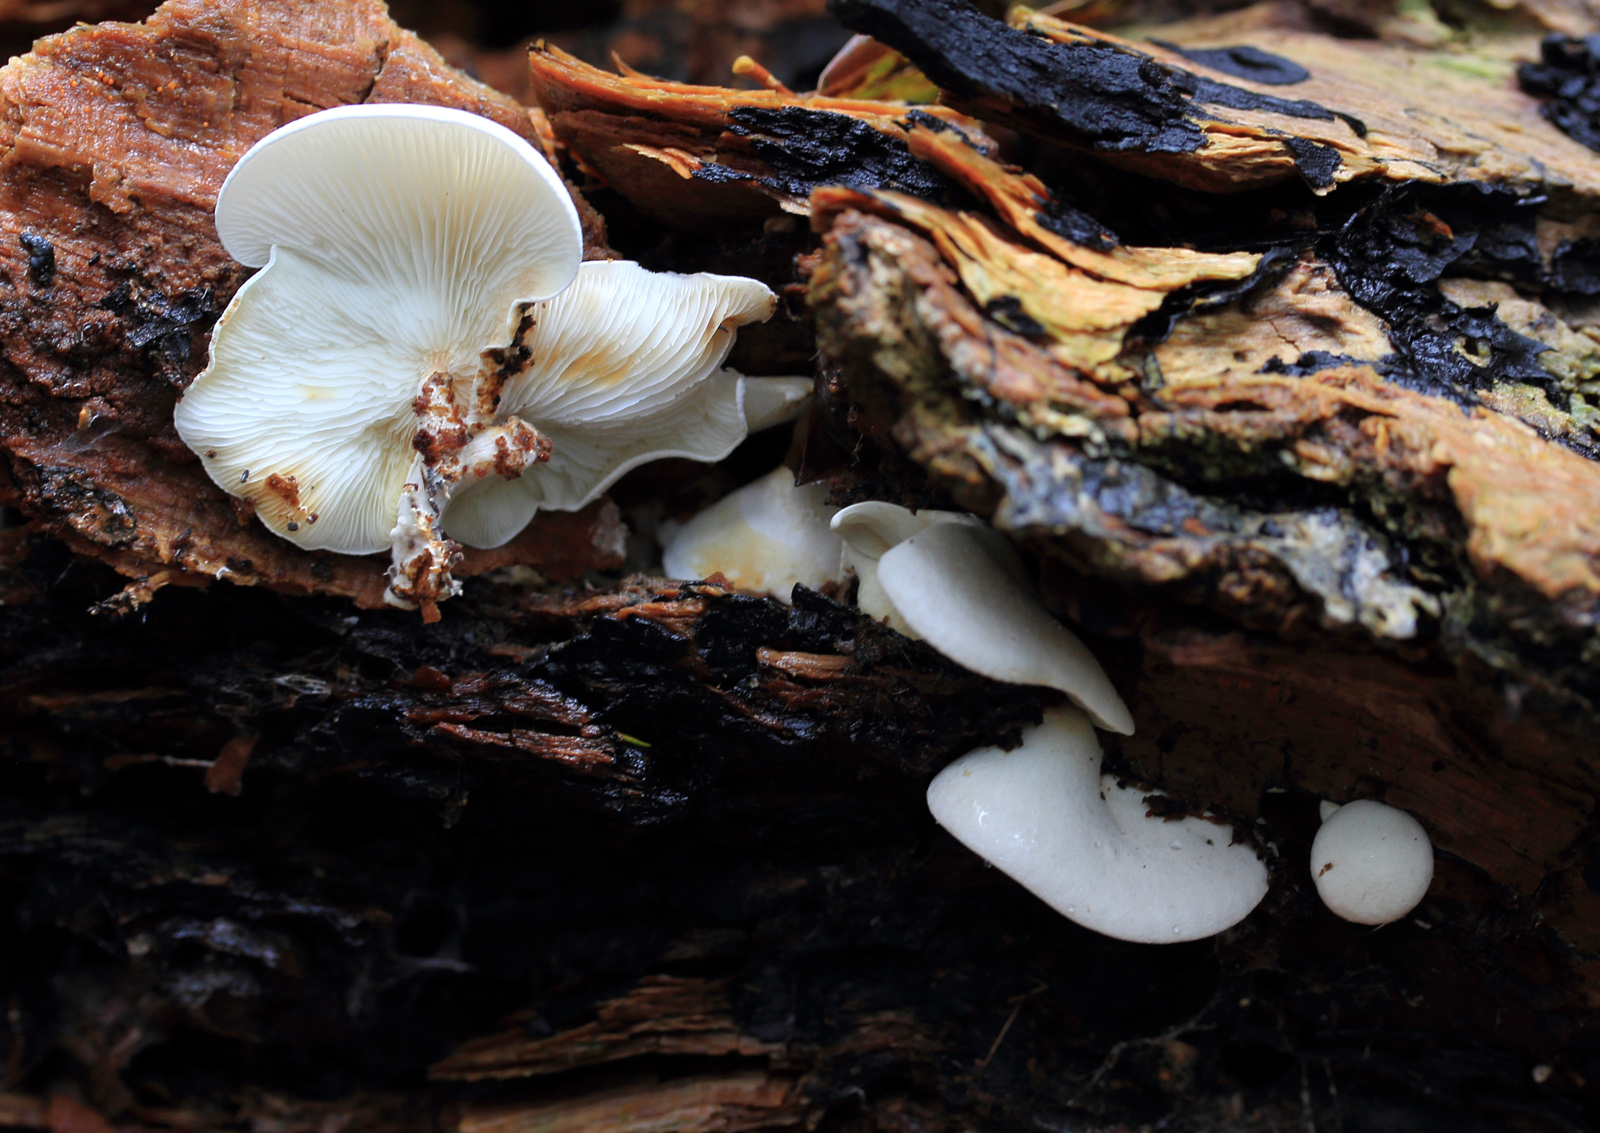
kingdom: Fungi
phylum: Basidiomycota
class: Agaricomycetes
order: Agaricales
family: Lyophyllaceae
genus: Ossicaulis
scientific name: Ossicaulis
